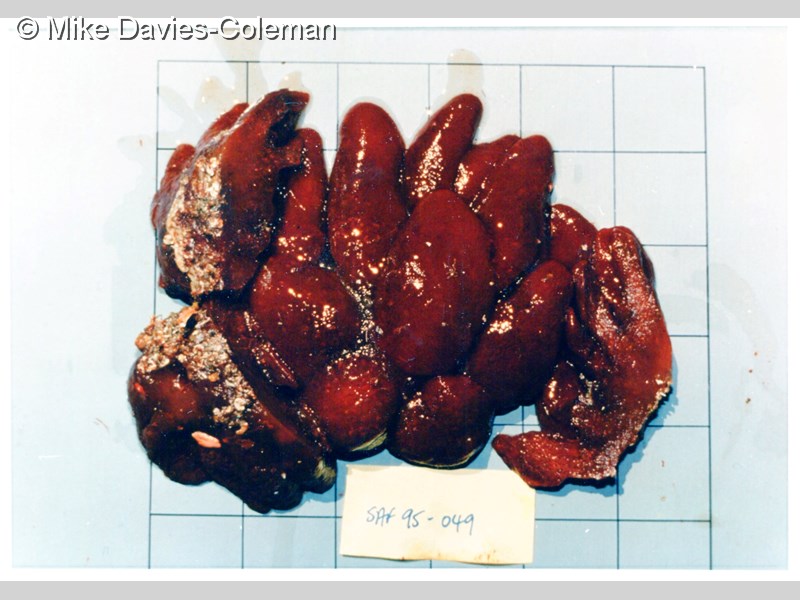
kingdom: Animalia
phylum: Chordata
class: Ascidiacea
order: Aplousobranchia
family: Pseudodistomidae
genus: Pseudodistoma
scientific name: Pseudodistoma
